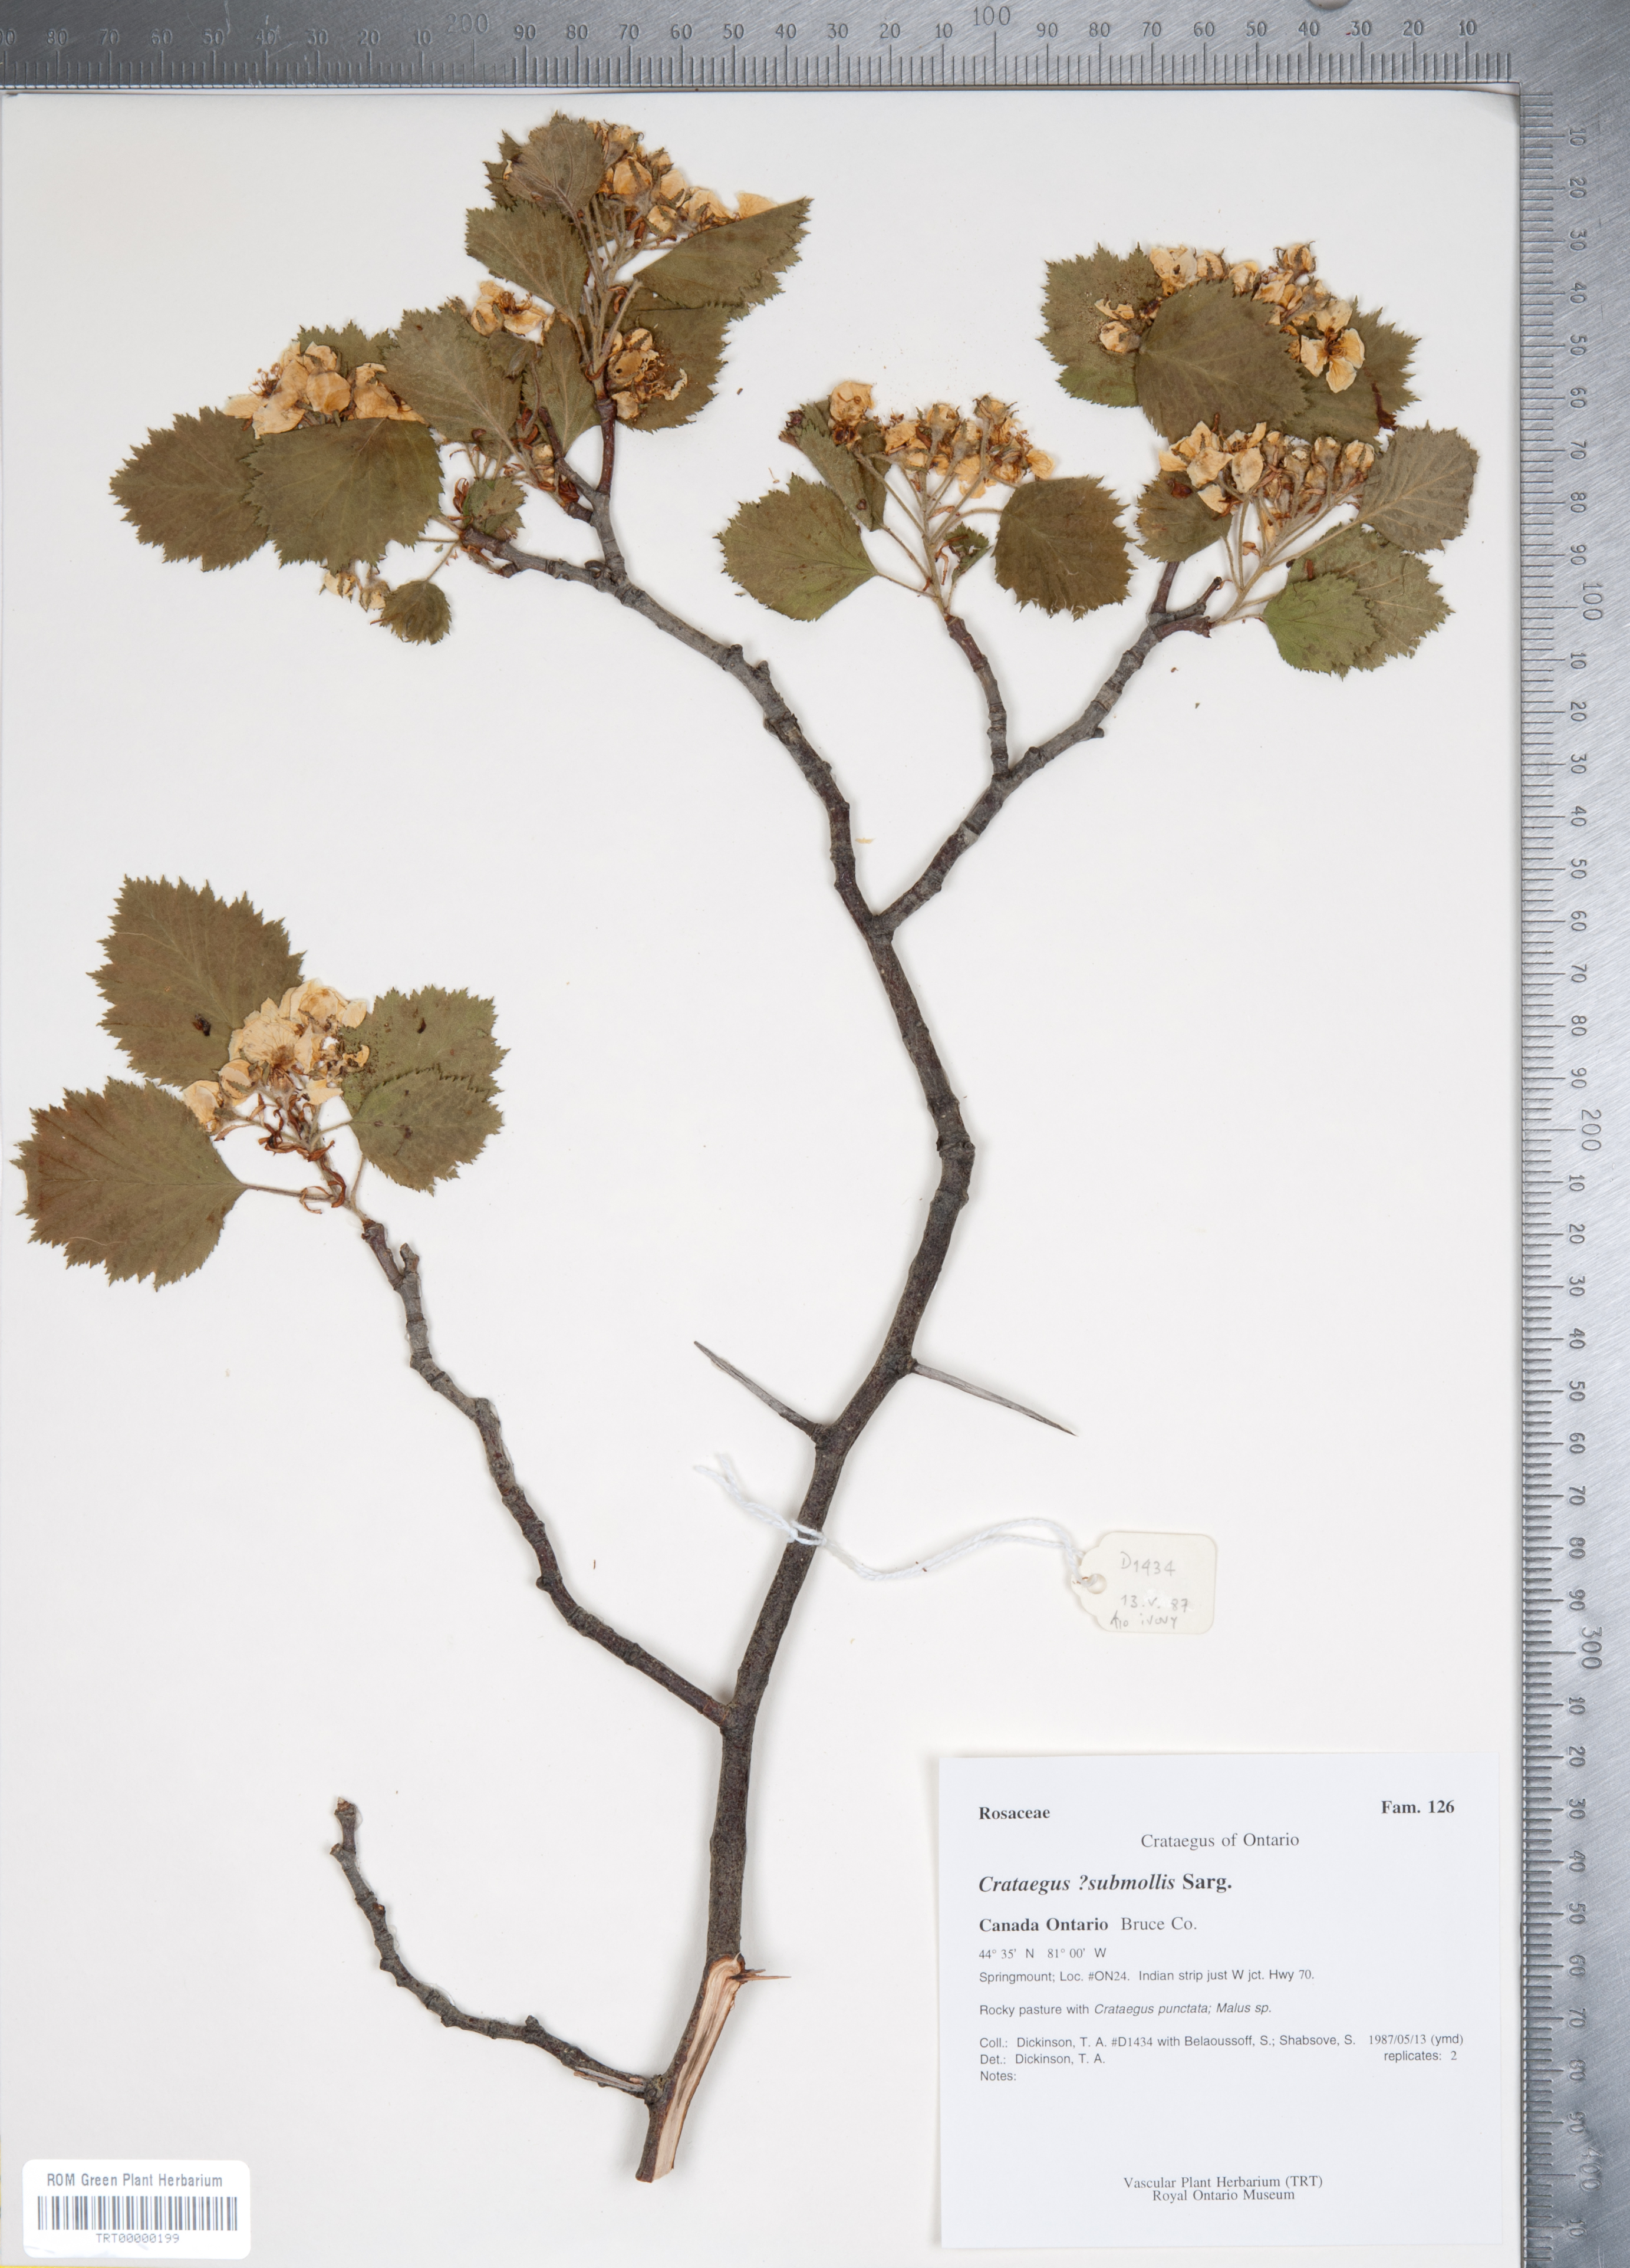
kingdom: Plantae
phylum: Tracheophyta
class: Magnoliopsida
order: Rosales
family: Rosaceae
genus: Crataegus
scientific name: Crataegus submollis
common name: Hairy cockspurthorn
